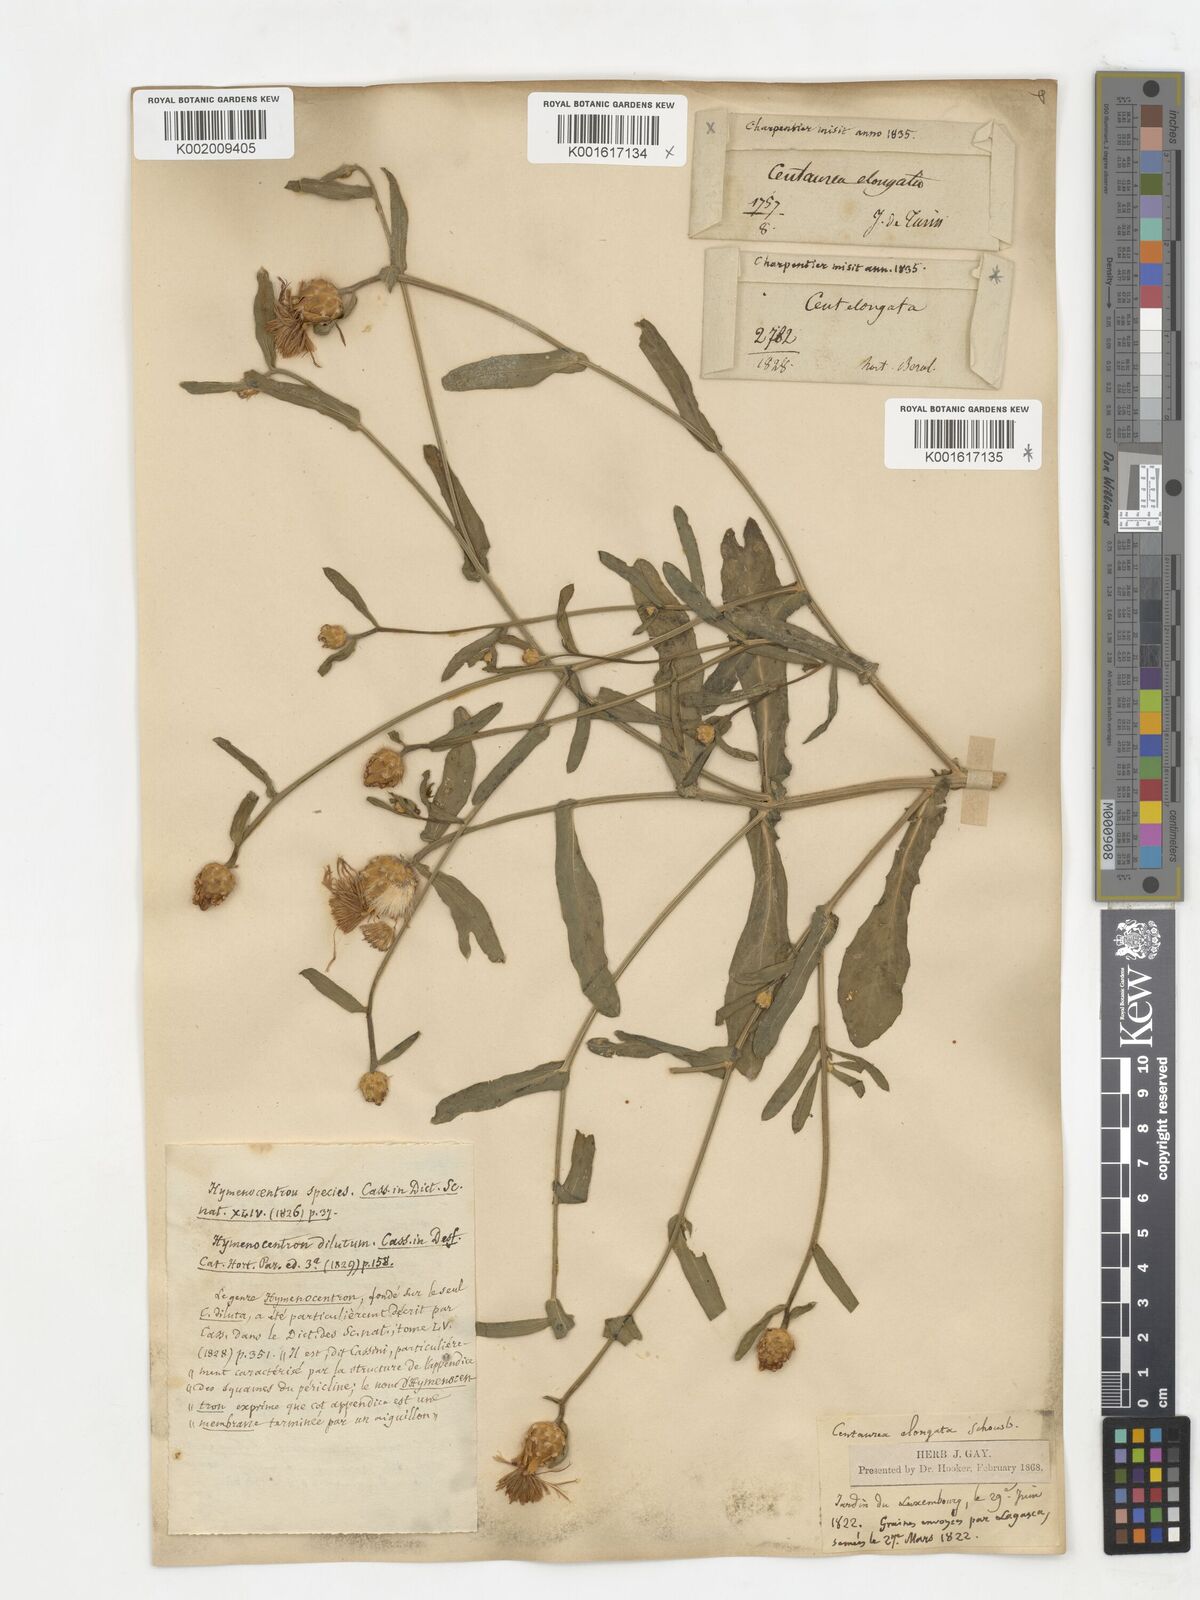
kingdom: Plantae
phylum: Tracheophyta
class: Magnoliopsida
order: Asterales
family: Asteraceae
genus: Centaurea
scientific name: Centaurea diluta
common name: Lesser star-thistle
